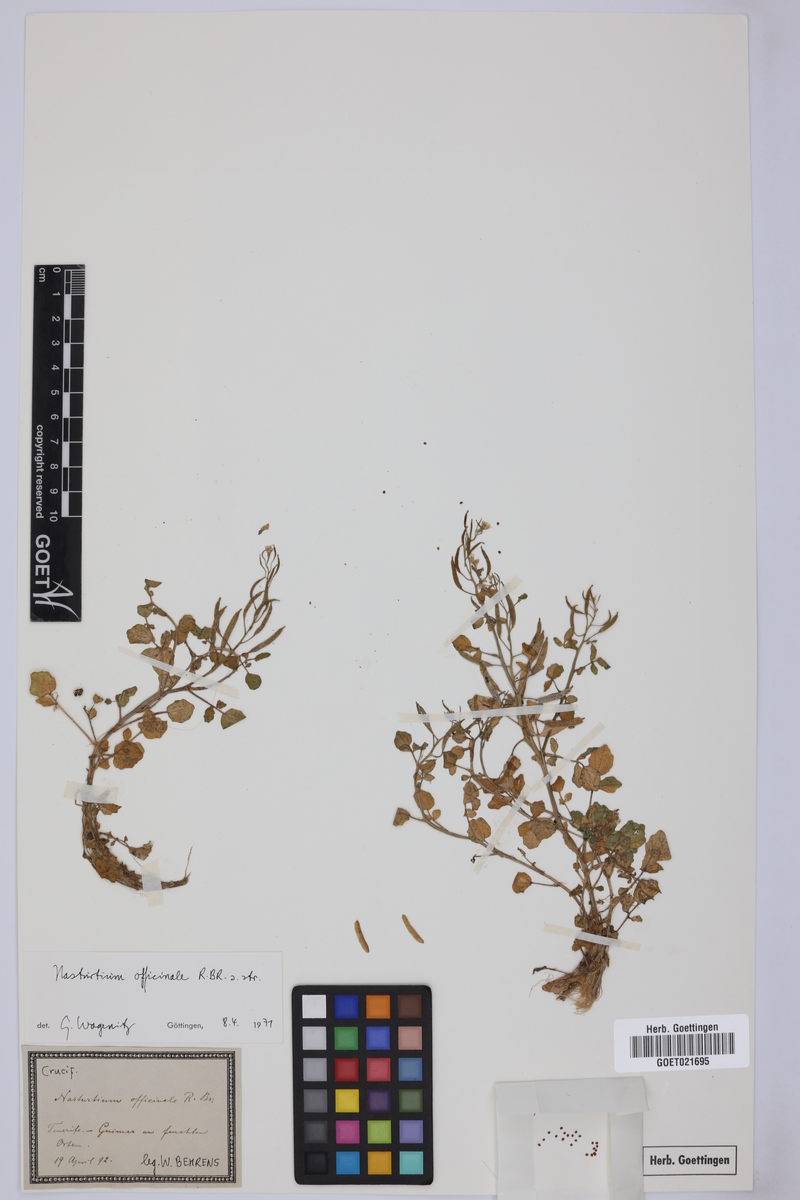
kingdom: Plantae
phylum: Tracheophyta
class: Magnoliopsida
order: Brassicales
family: Brassicaceae
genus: Nasturtium
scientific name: Nasturtium officinale
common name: Watercress
